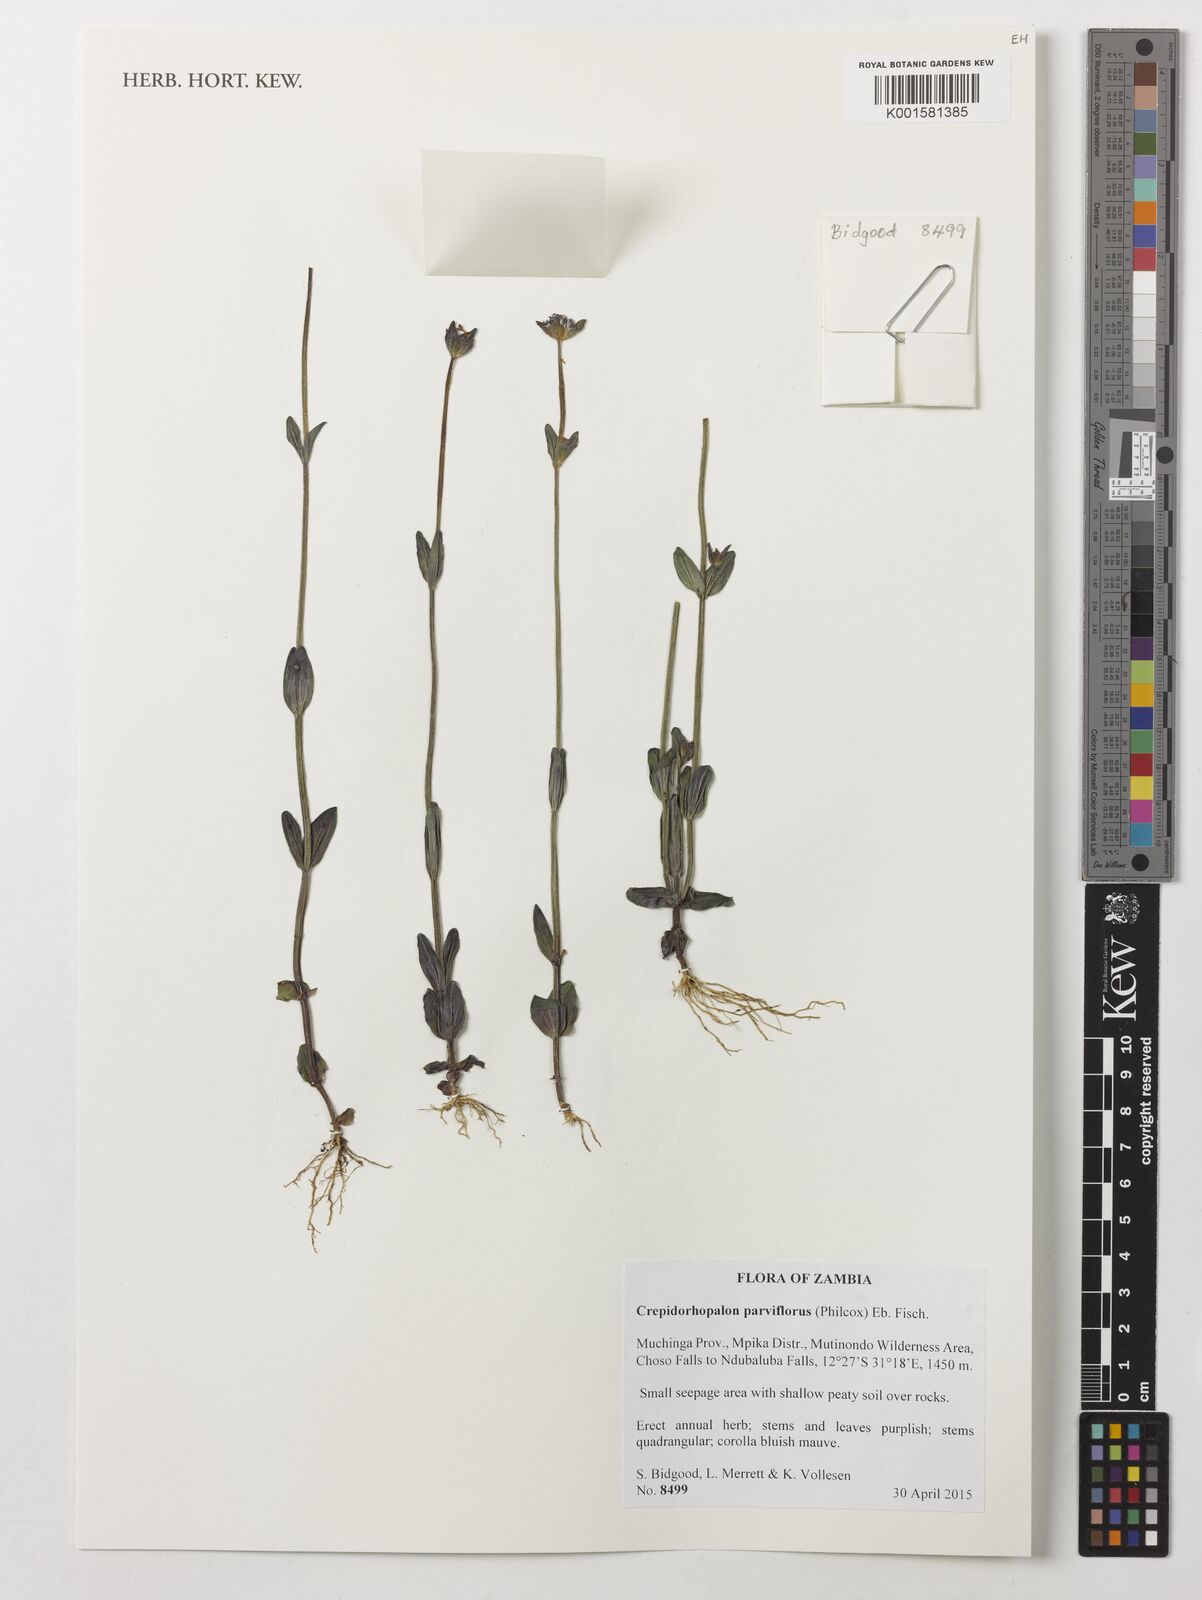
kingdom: Plantae
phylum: Tracheophyta
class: Magnoliopsida
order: Lamiales
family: Linderniaceae
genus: Crepidorhopalon
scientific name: Crepidorhopalon parviflorus
